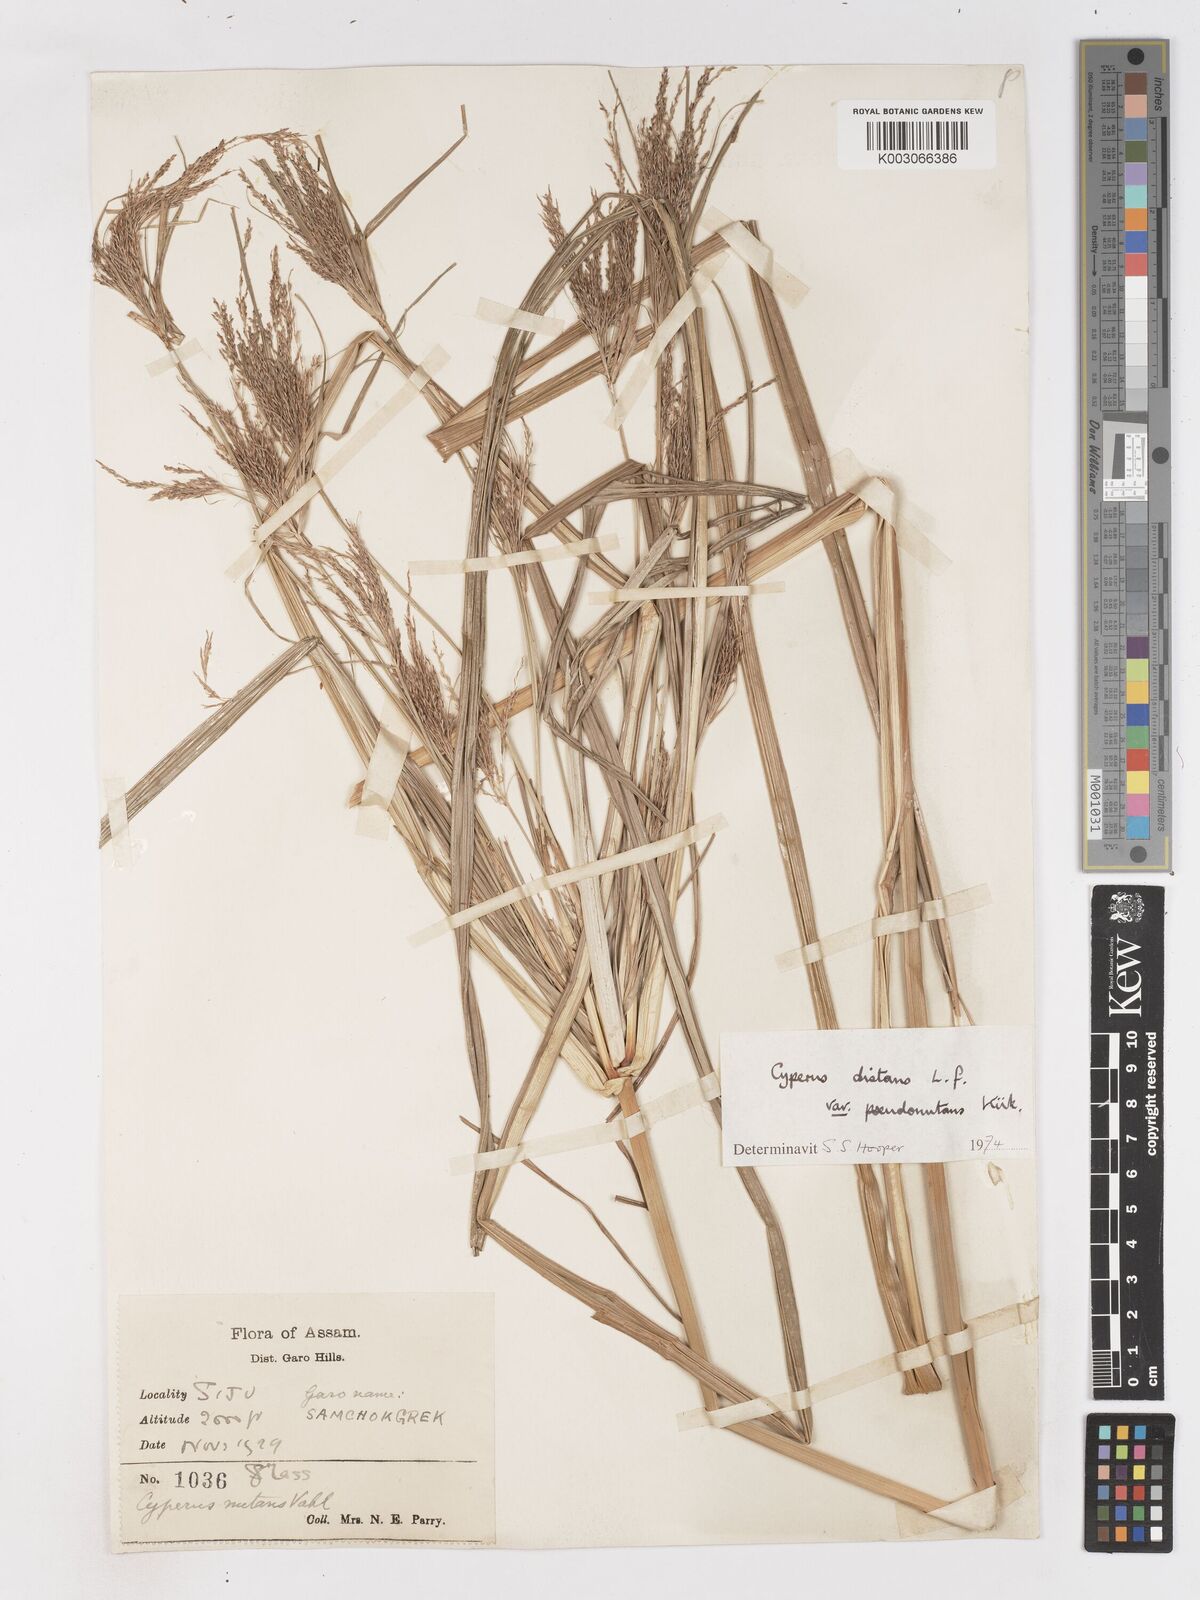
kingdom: Plantae
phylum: Tracheophyta
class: Liliopsida
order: Poales
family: Cyperaceae
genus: Cyperus
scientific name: Cyperus distans
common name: Slender cyperus
